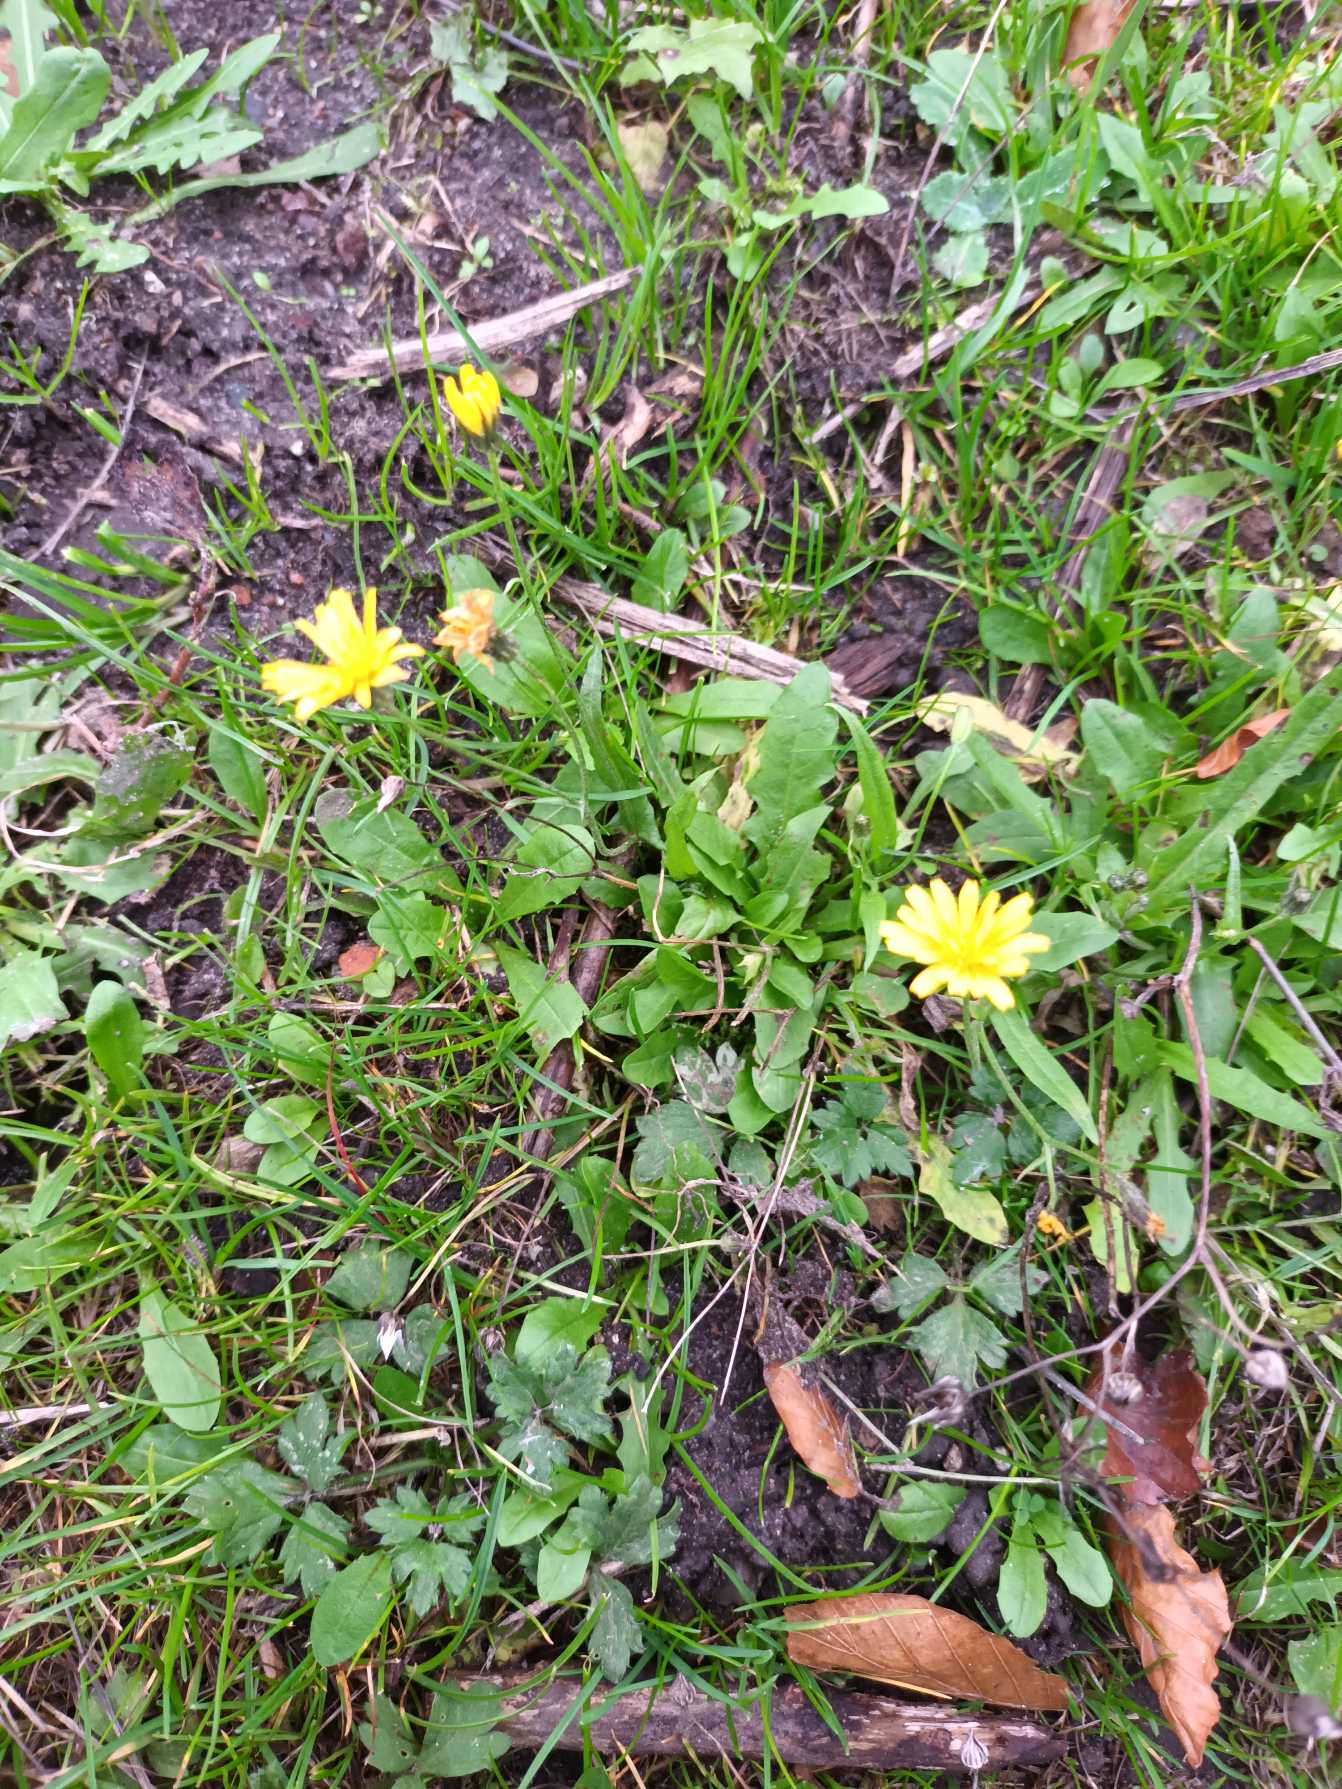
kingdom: Plantae
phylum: Tracheophyta
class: Magnoliopsida
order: Asterales
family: Asteraceae
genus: Crepis
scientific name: Crepis capillaris
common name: Grøn høgeskæg
